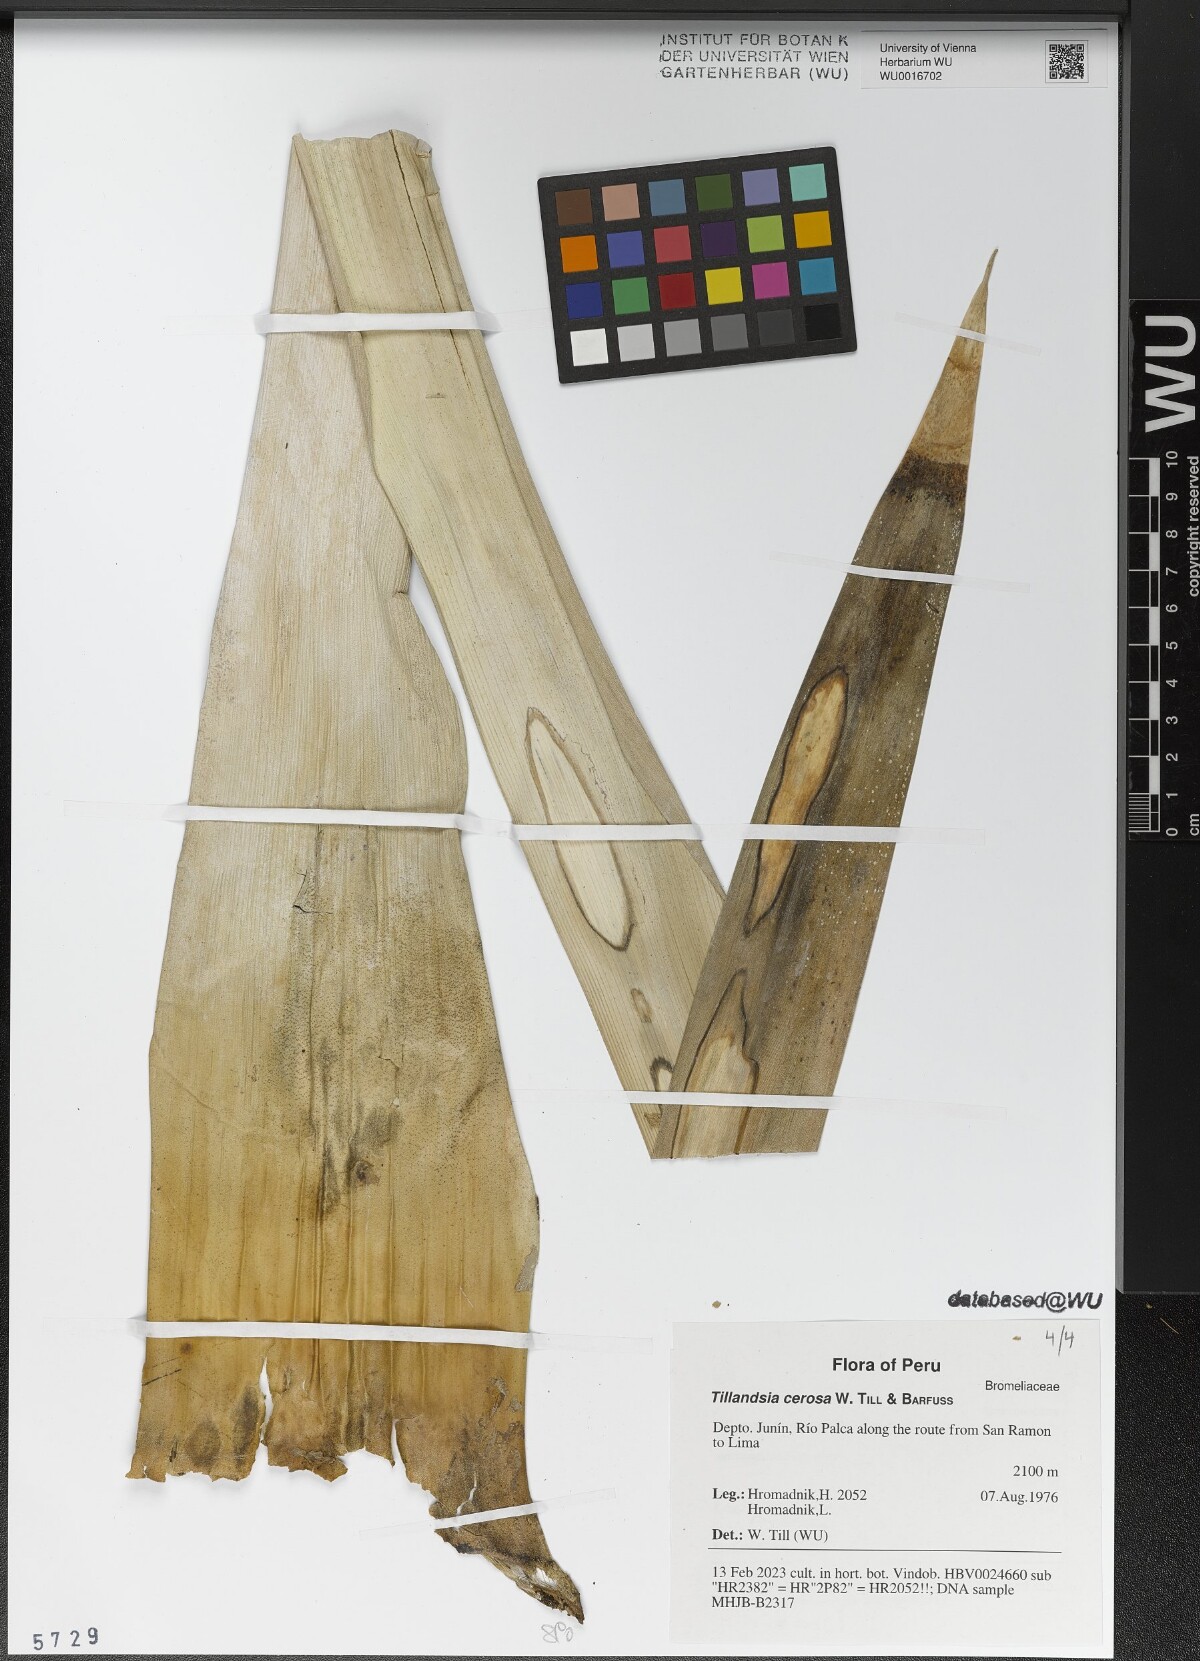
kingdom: Plantae
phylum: Tracheophyta
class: Liliopsida
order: Poales
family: Bromeliaceae
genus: Tillandsia
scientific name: Tillandsia cernua
